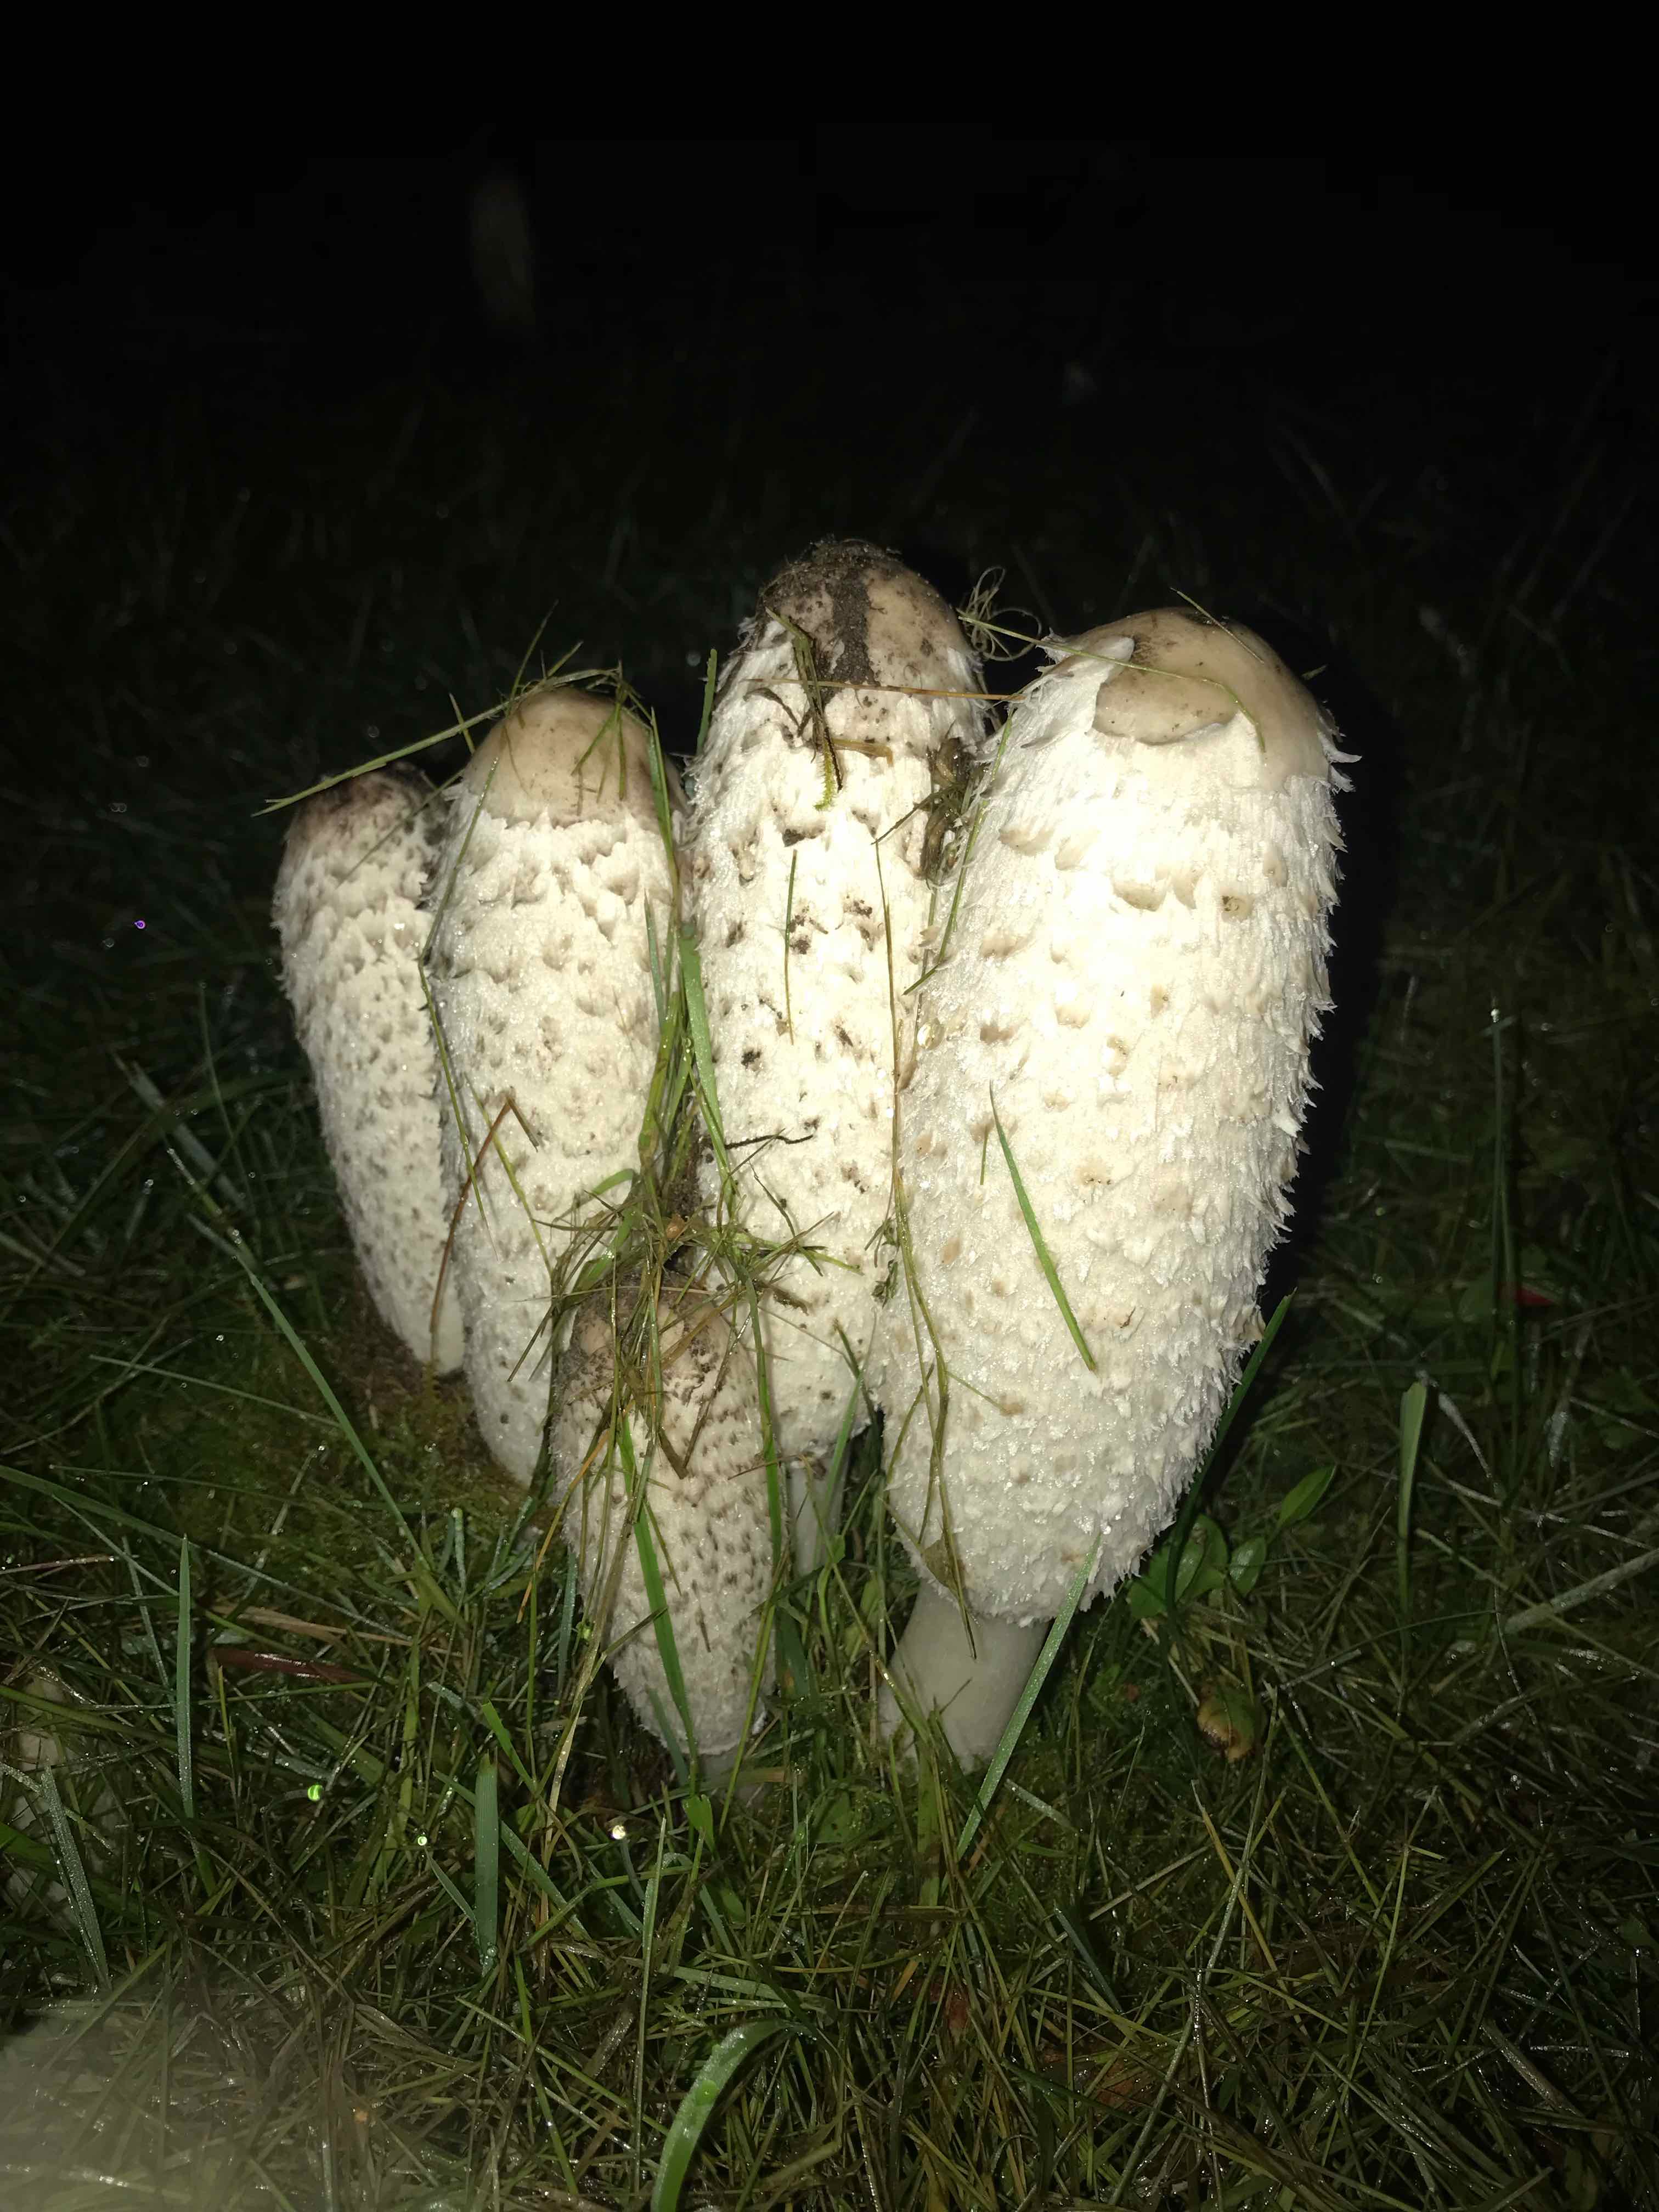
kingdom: Fungi
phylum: Basidiomycota
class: Agaricomycetes
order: Agaricales
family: Agaricaceae
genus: Coprinus
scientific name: Coprinus comatus
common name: stor parykhat
